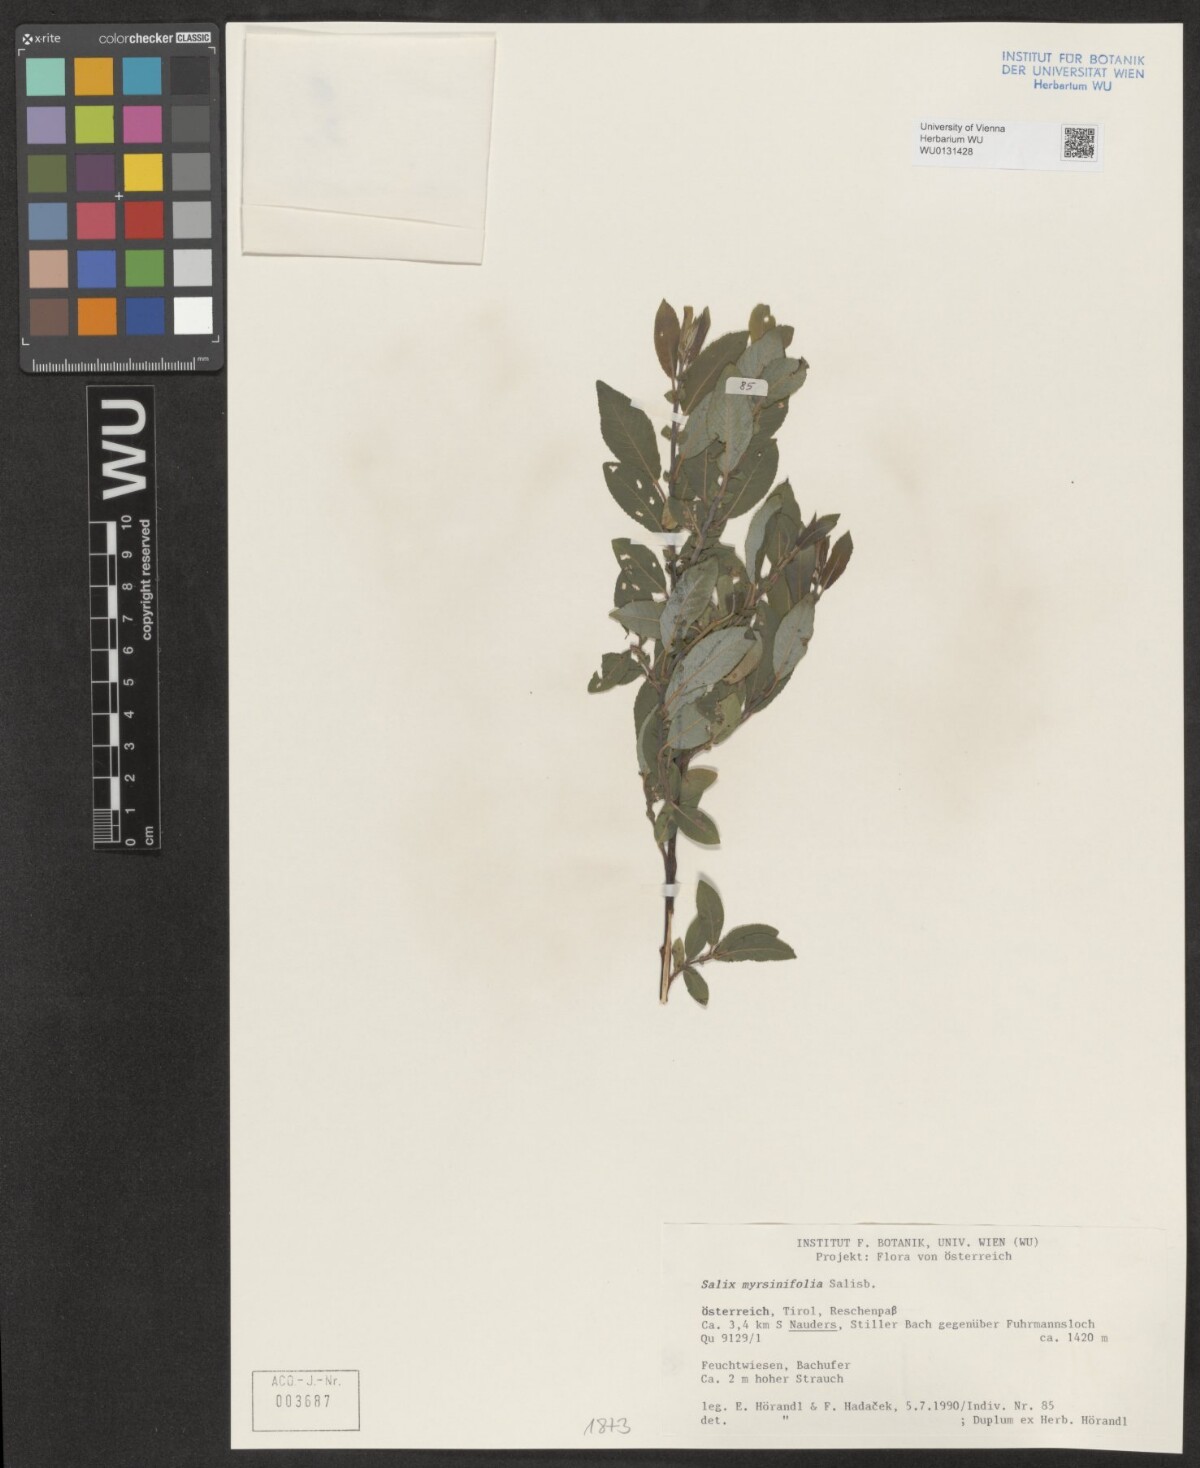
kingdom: Plantae
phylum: Tracheophyta
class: Magnoliopsida
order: Malpighiales
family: Salicaceae
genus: Salix
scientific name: Salix myrsinifolia
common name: Dark-leaved willow
